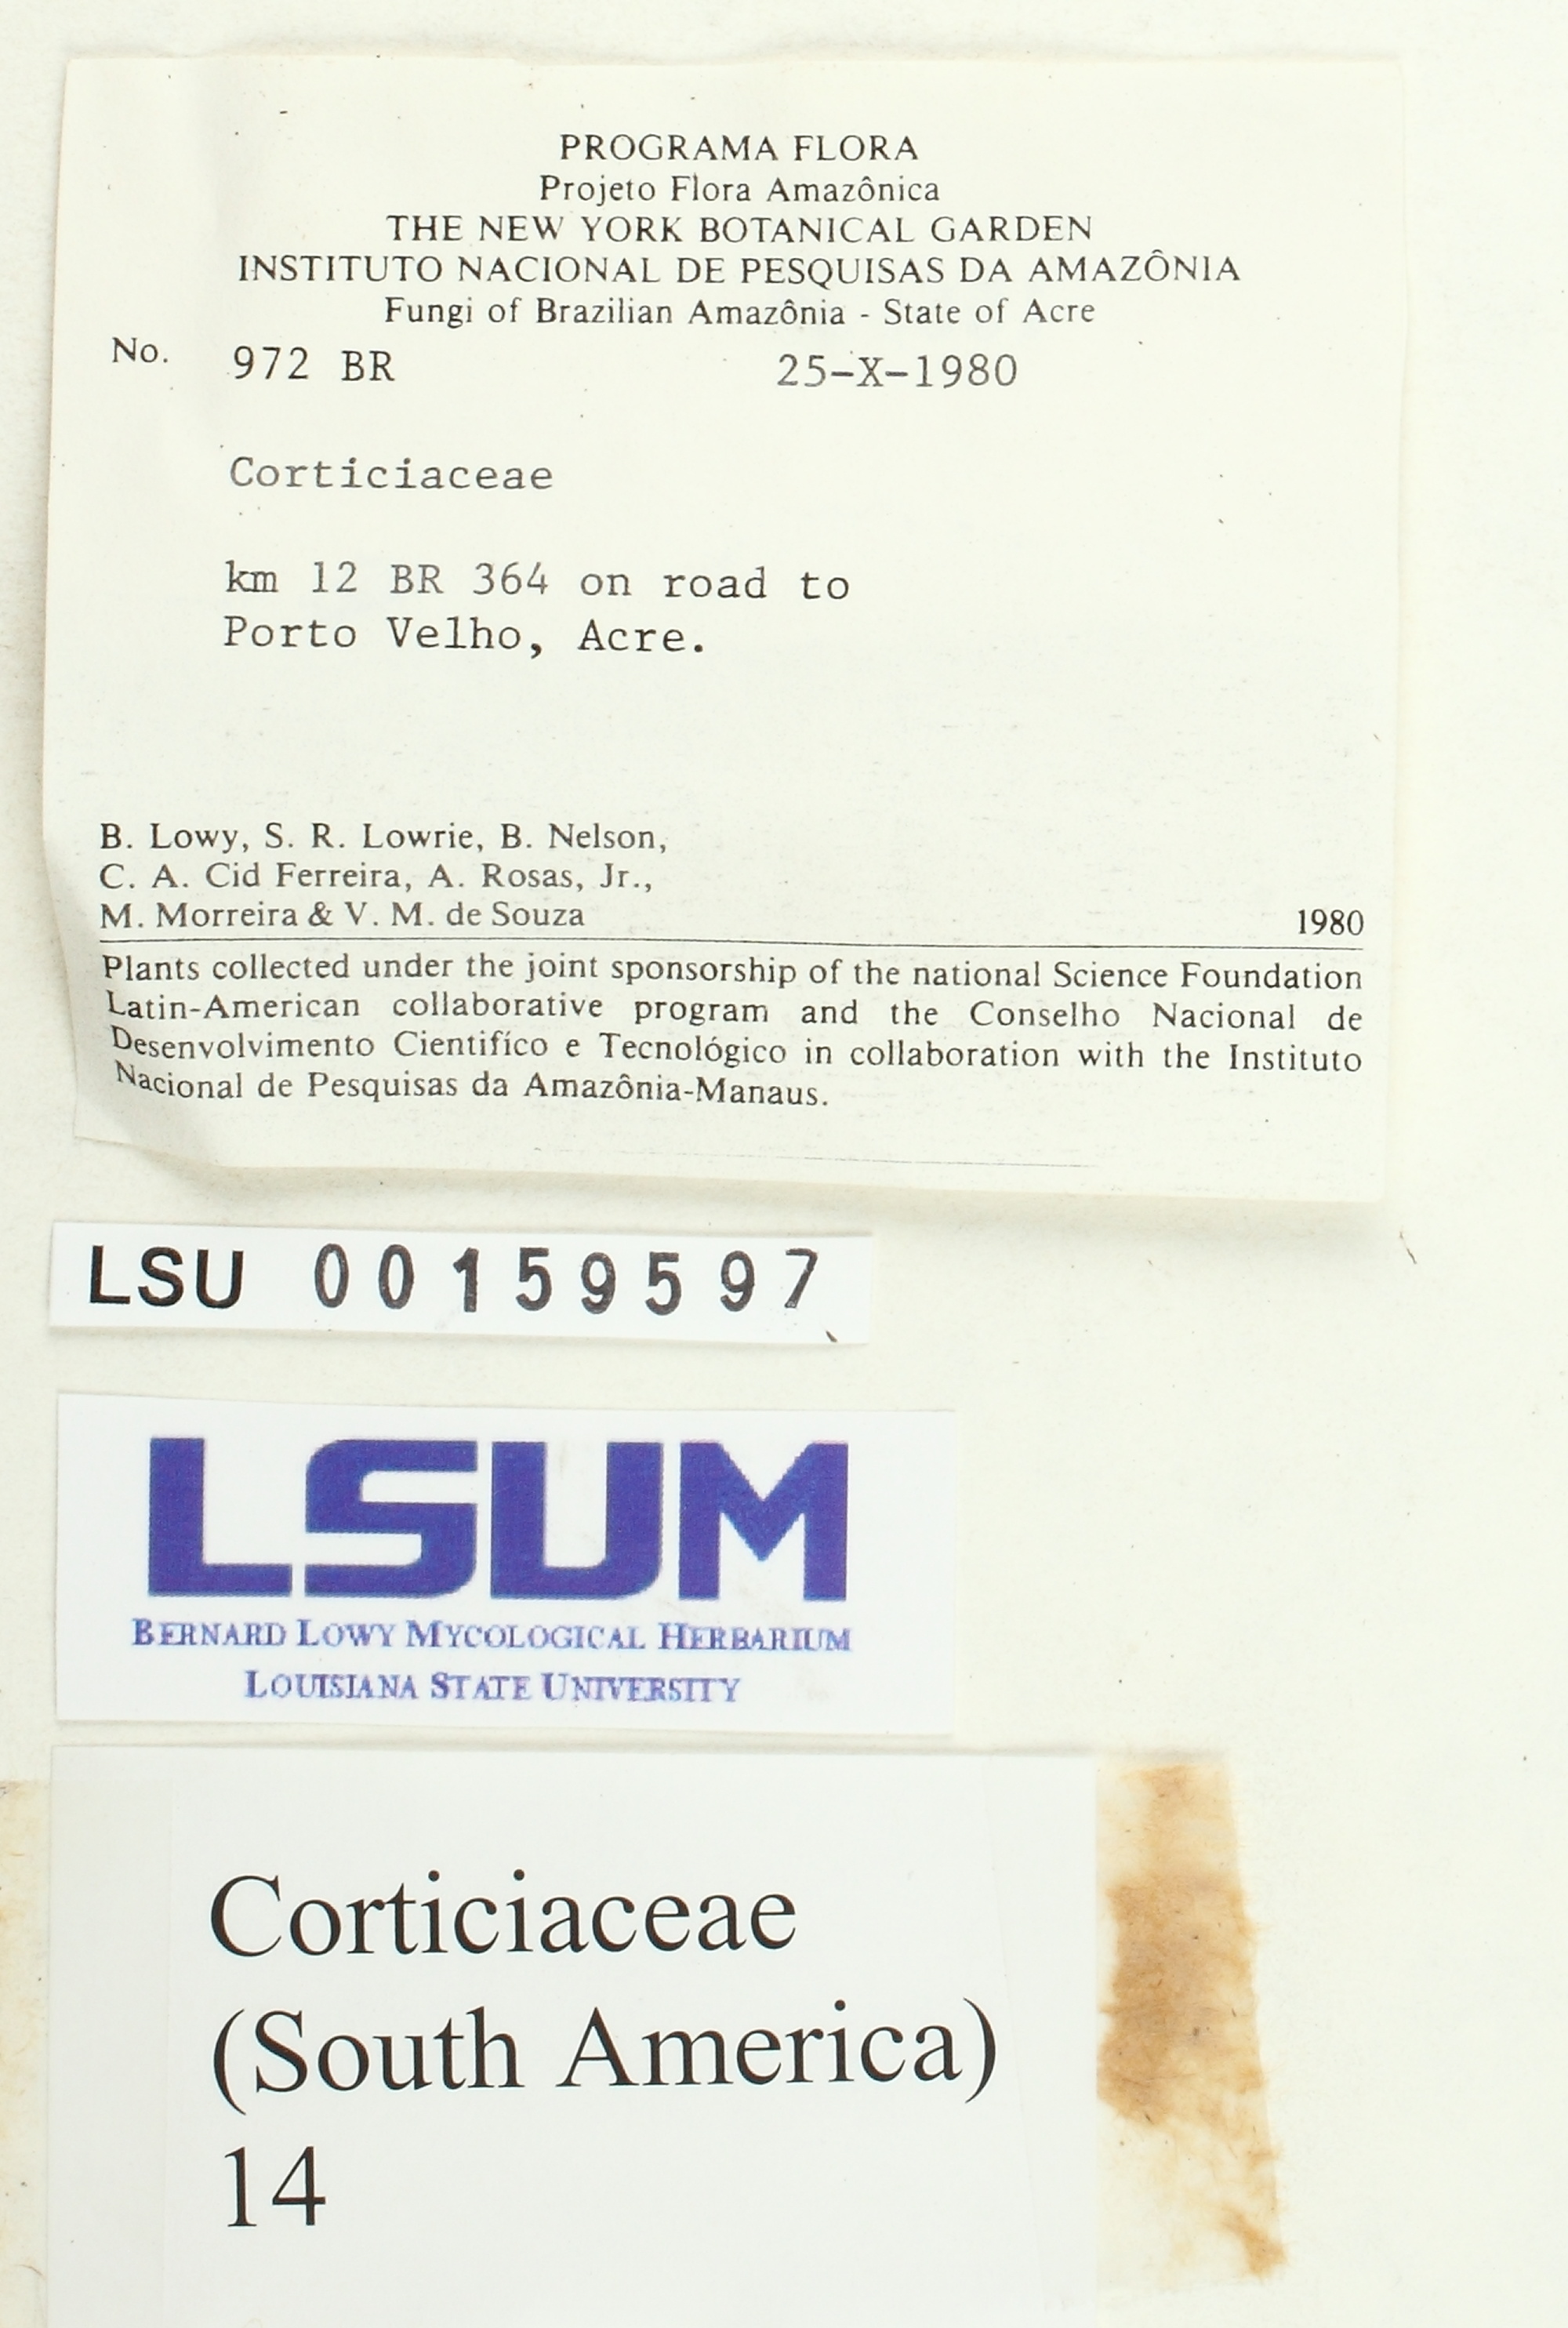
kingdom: Fungi
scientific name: Fungi
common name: Fungi
